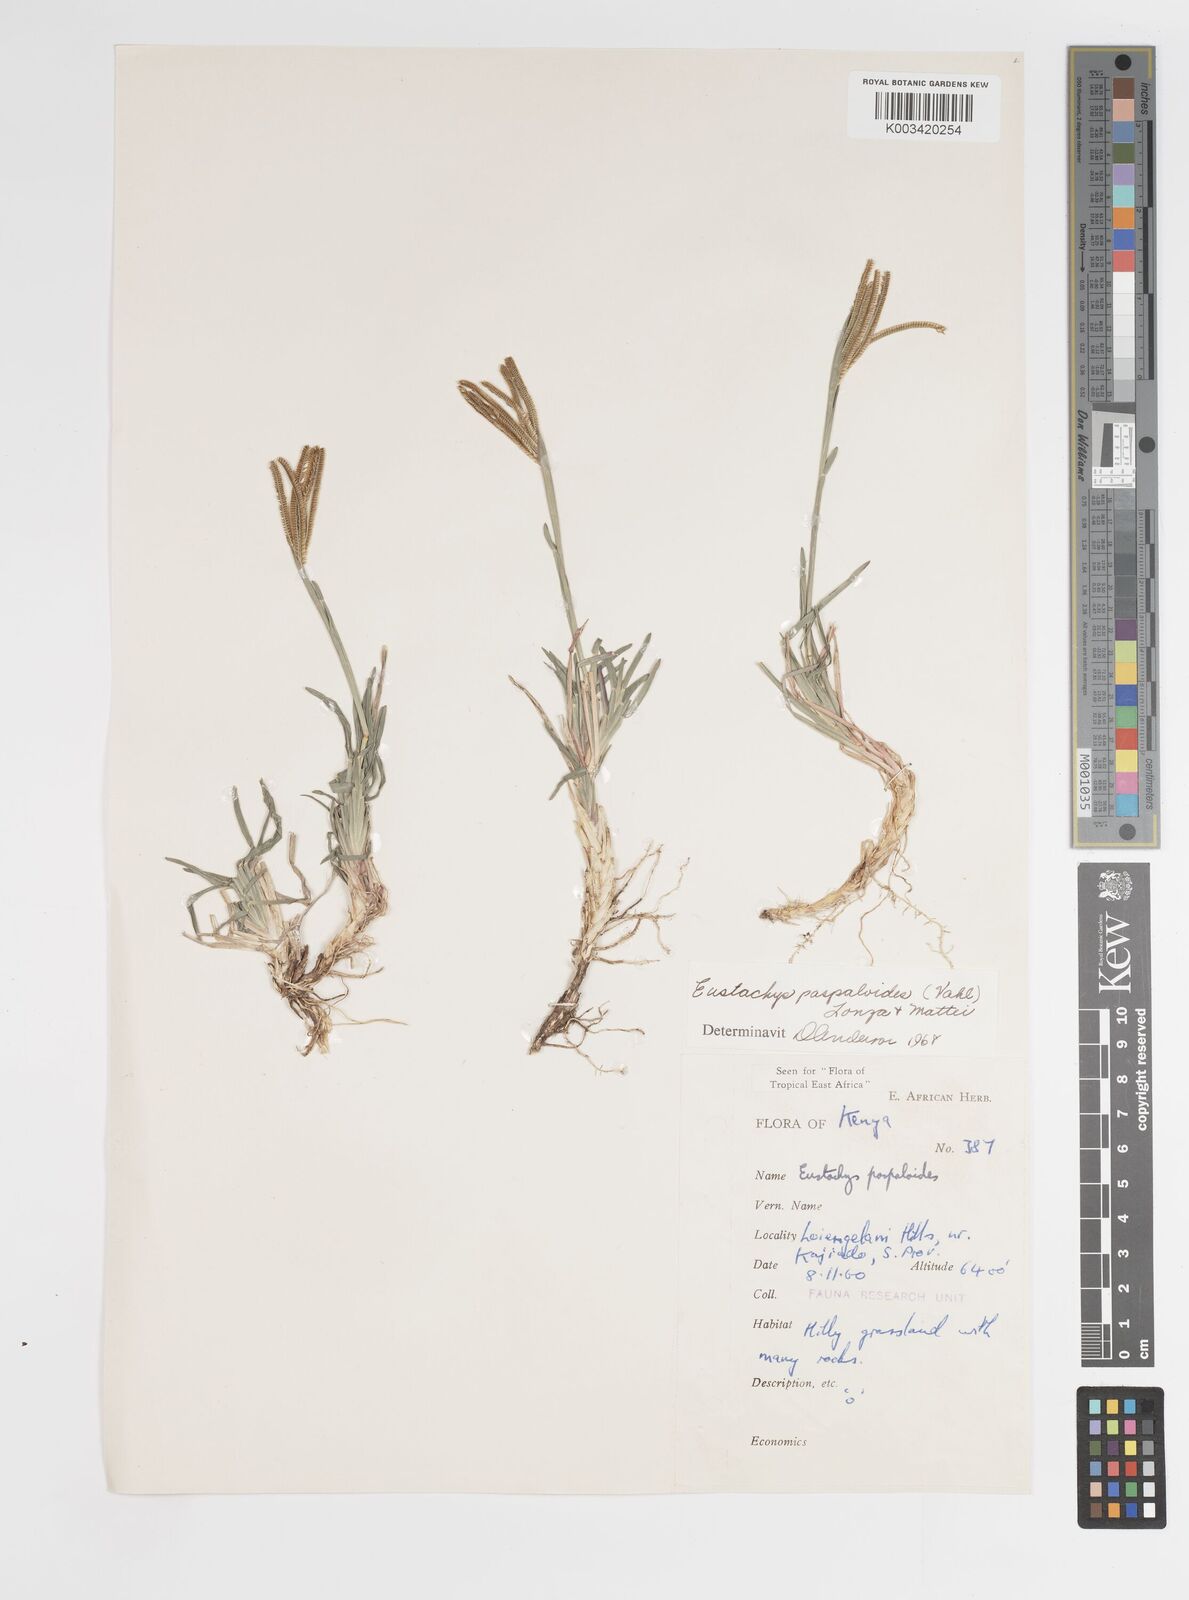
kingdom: Plantae
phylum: Tracheophyta
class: Liliopsida
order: Poales
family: Poaceae
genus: Eustachys
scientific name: Eustachys paspaloides
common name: Caribbean fingergrass
